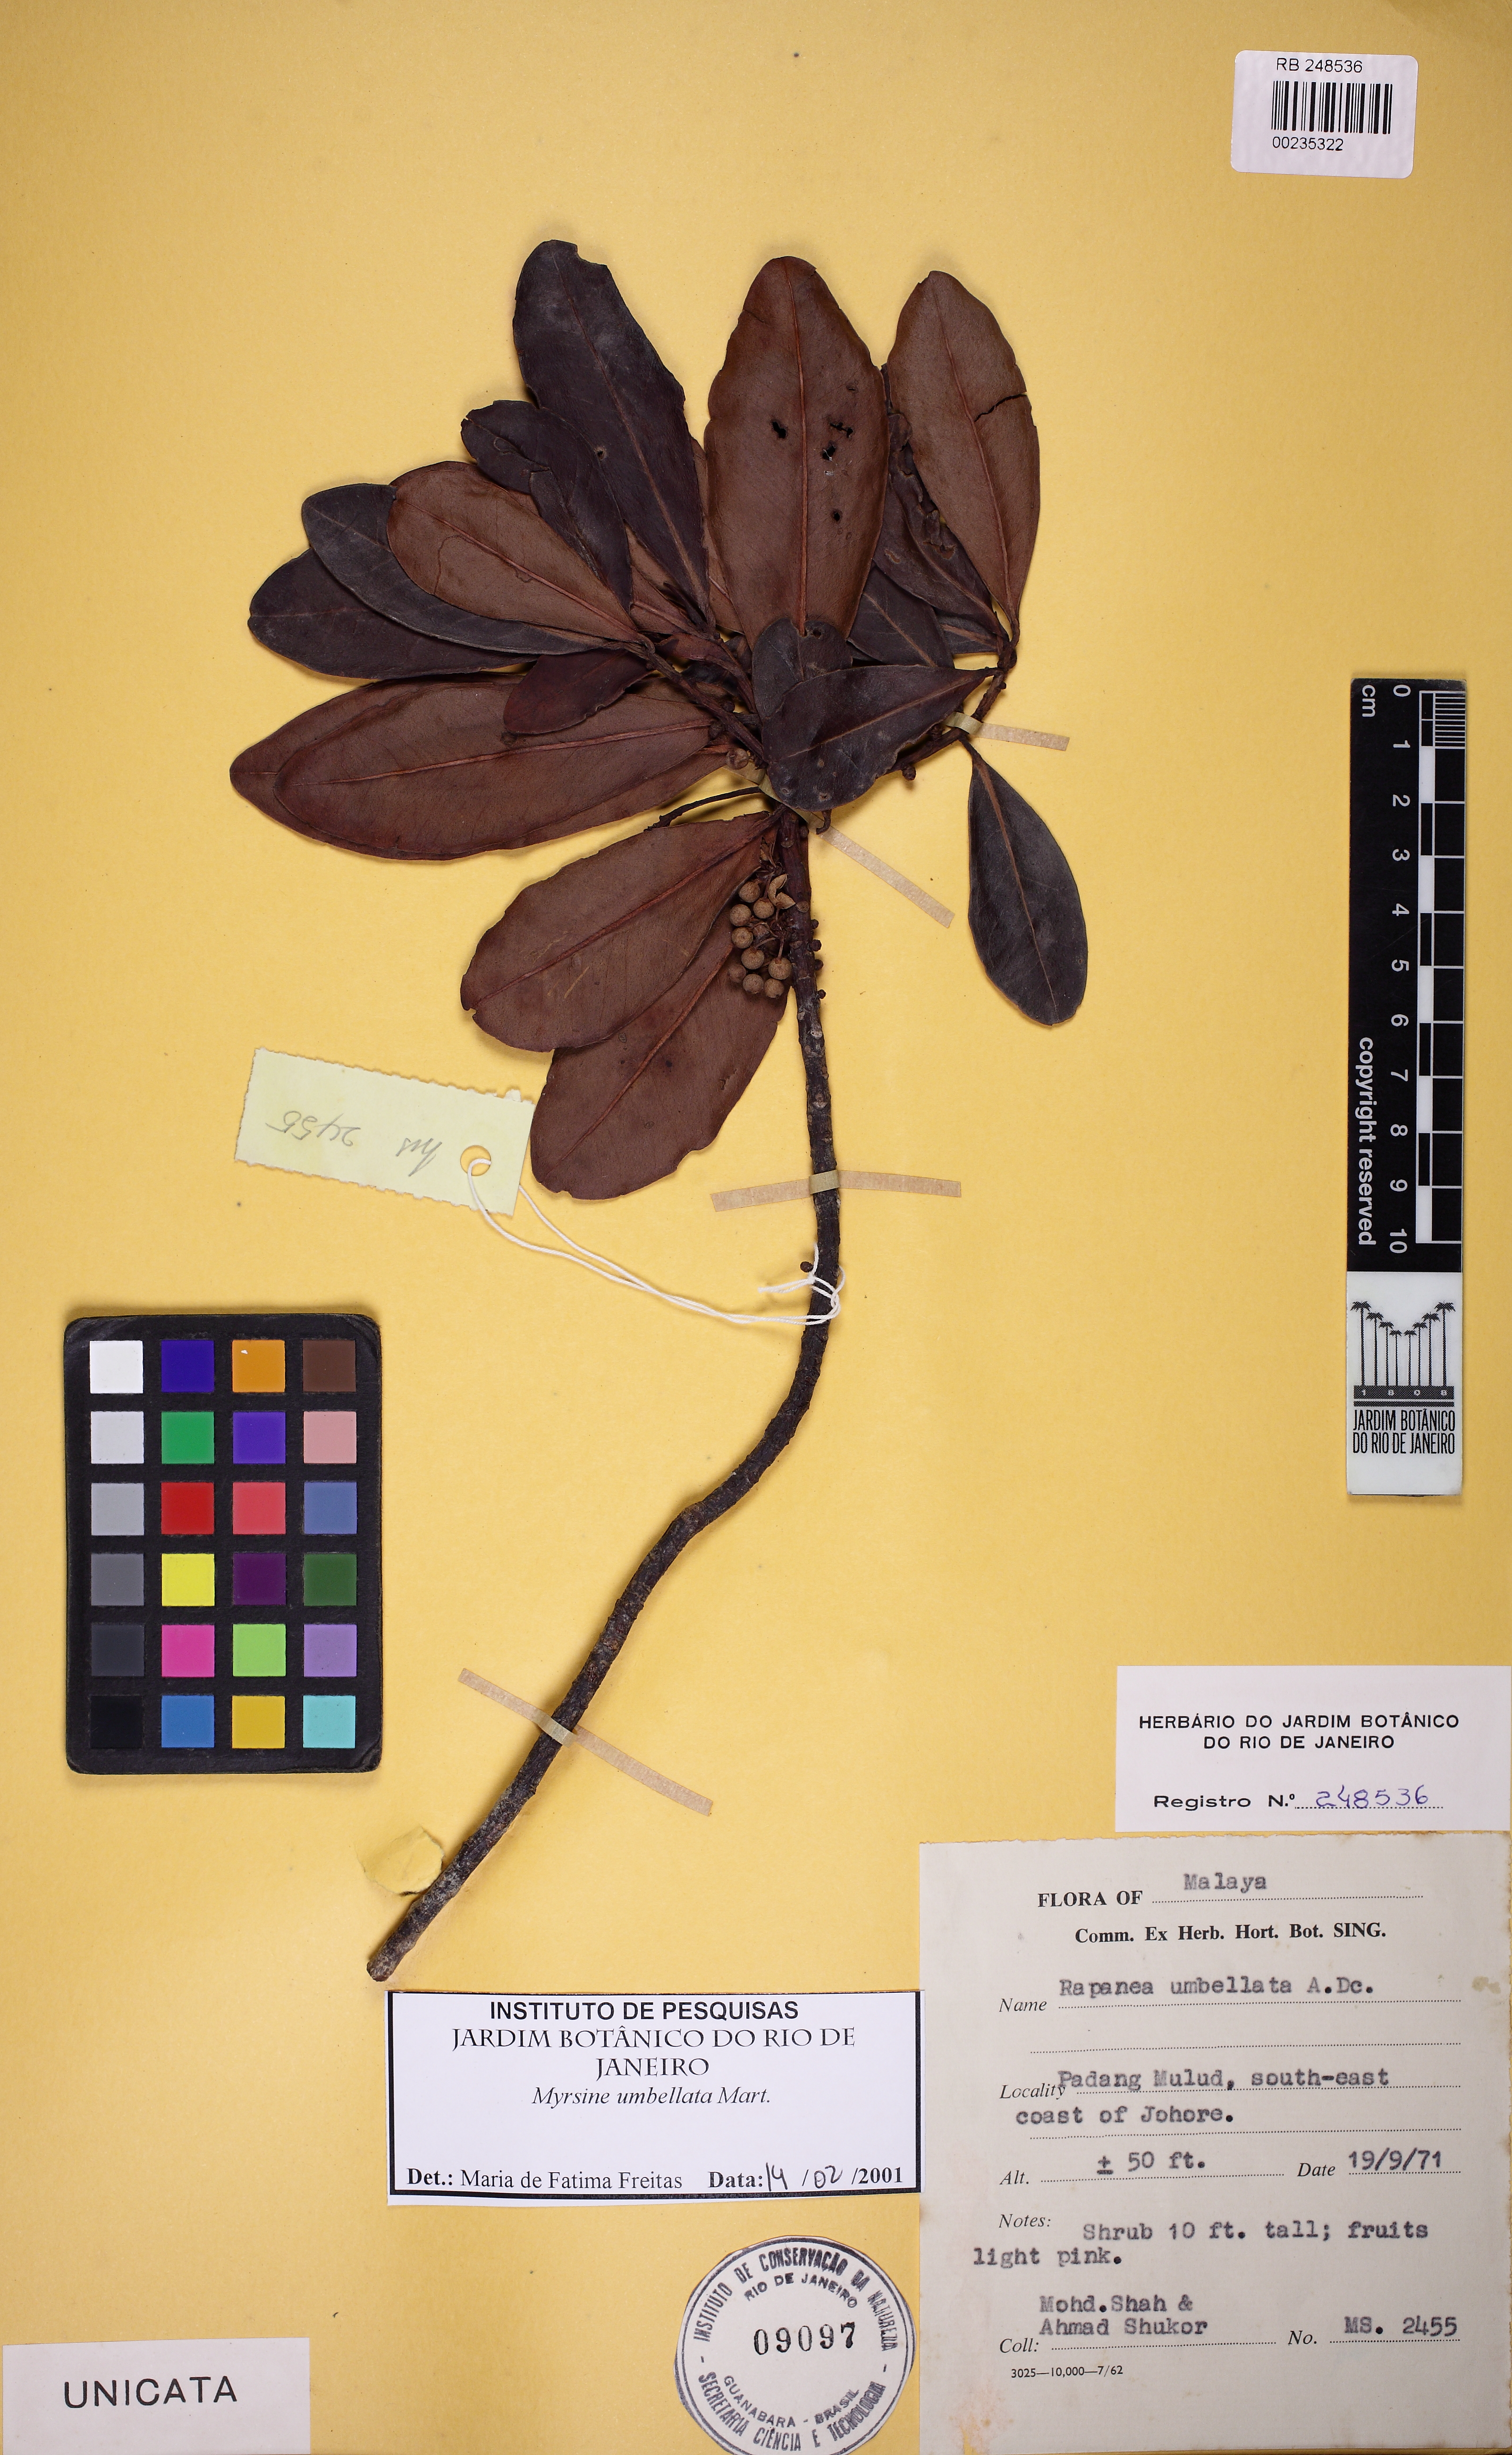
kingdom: Plantae
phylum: Tracheophyta
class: Magnoliopsida
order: Ericales
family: Primulaceae
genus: Myrsine
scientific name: Myrsine umbellata
